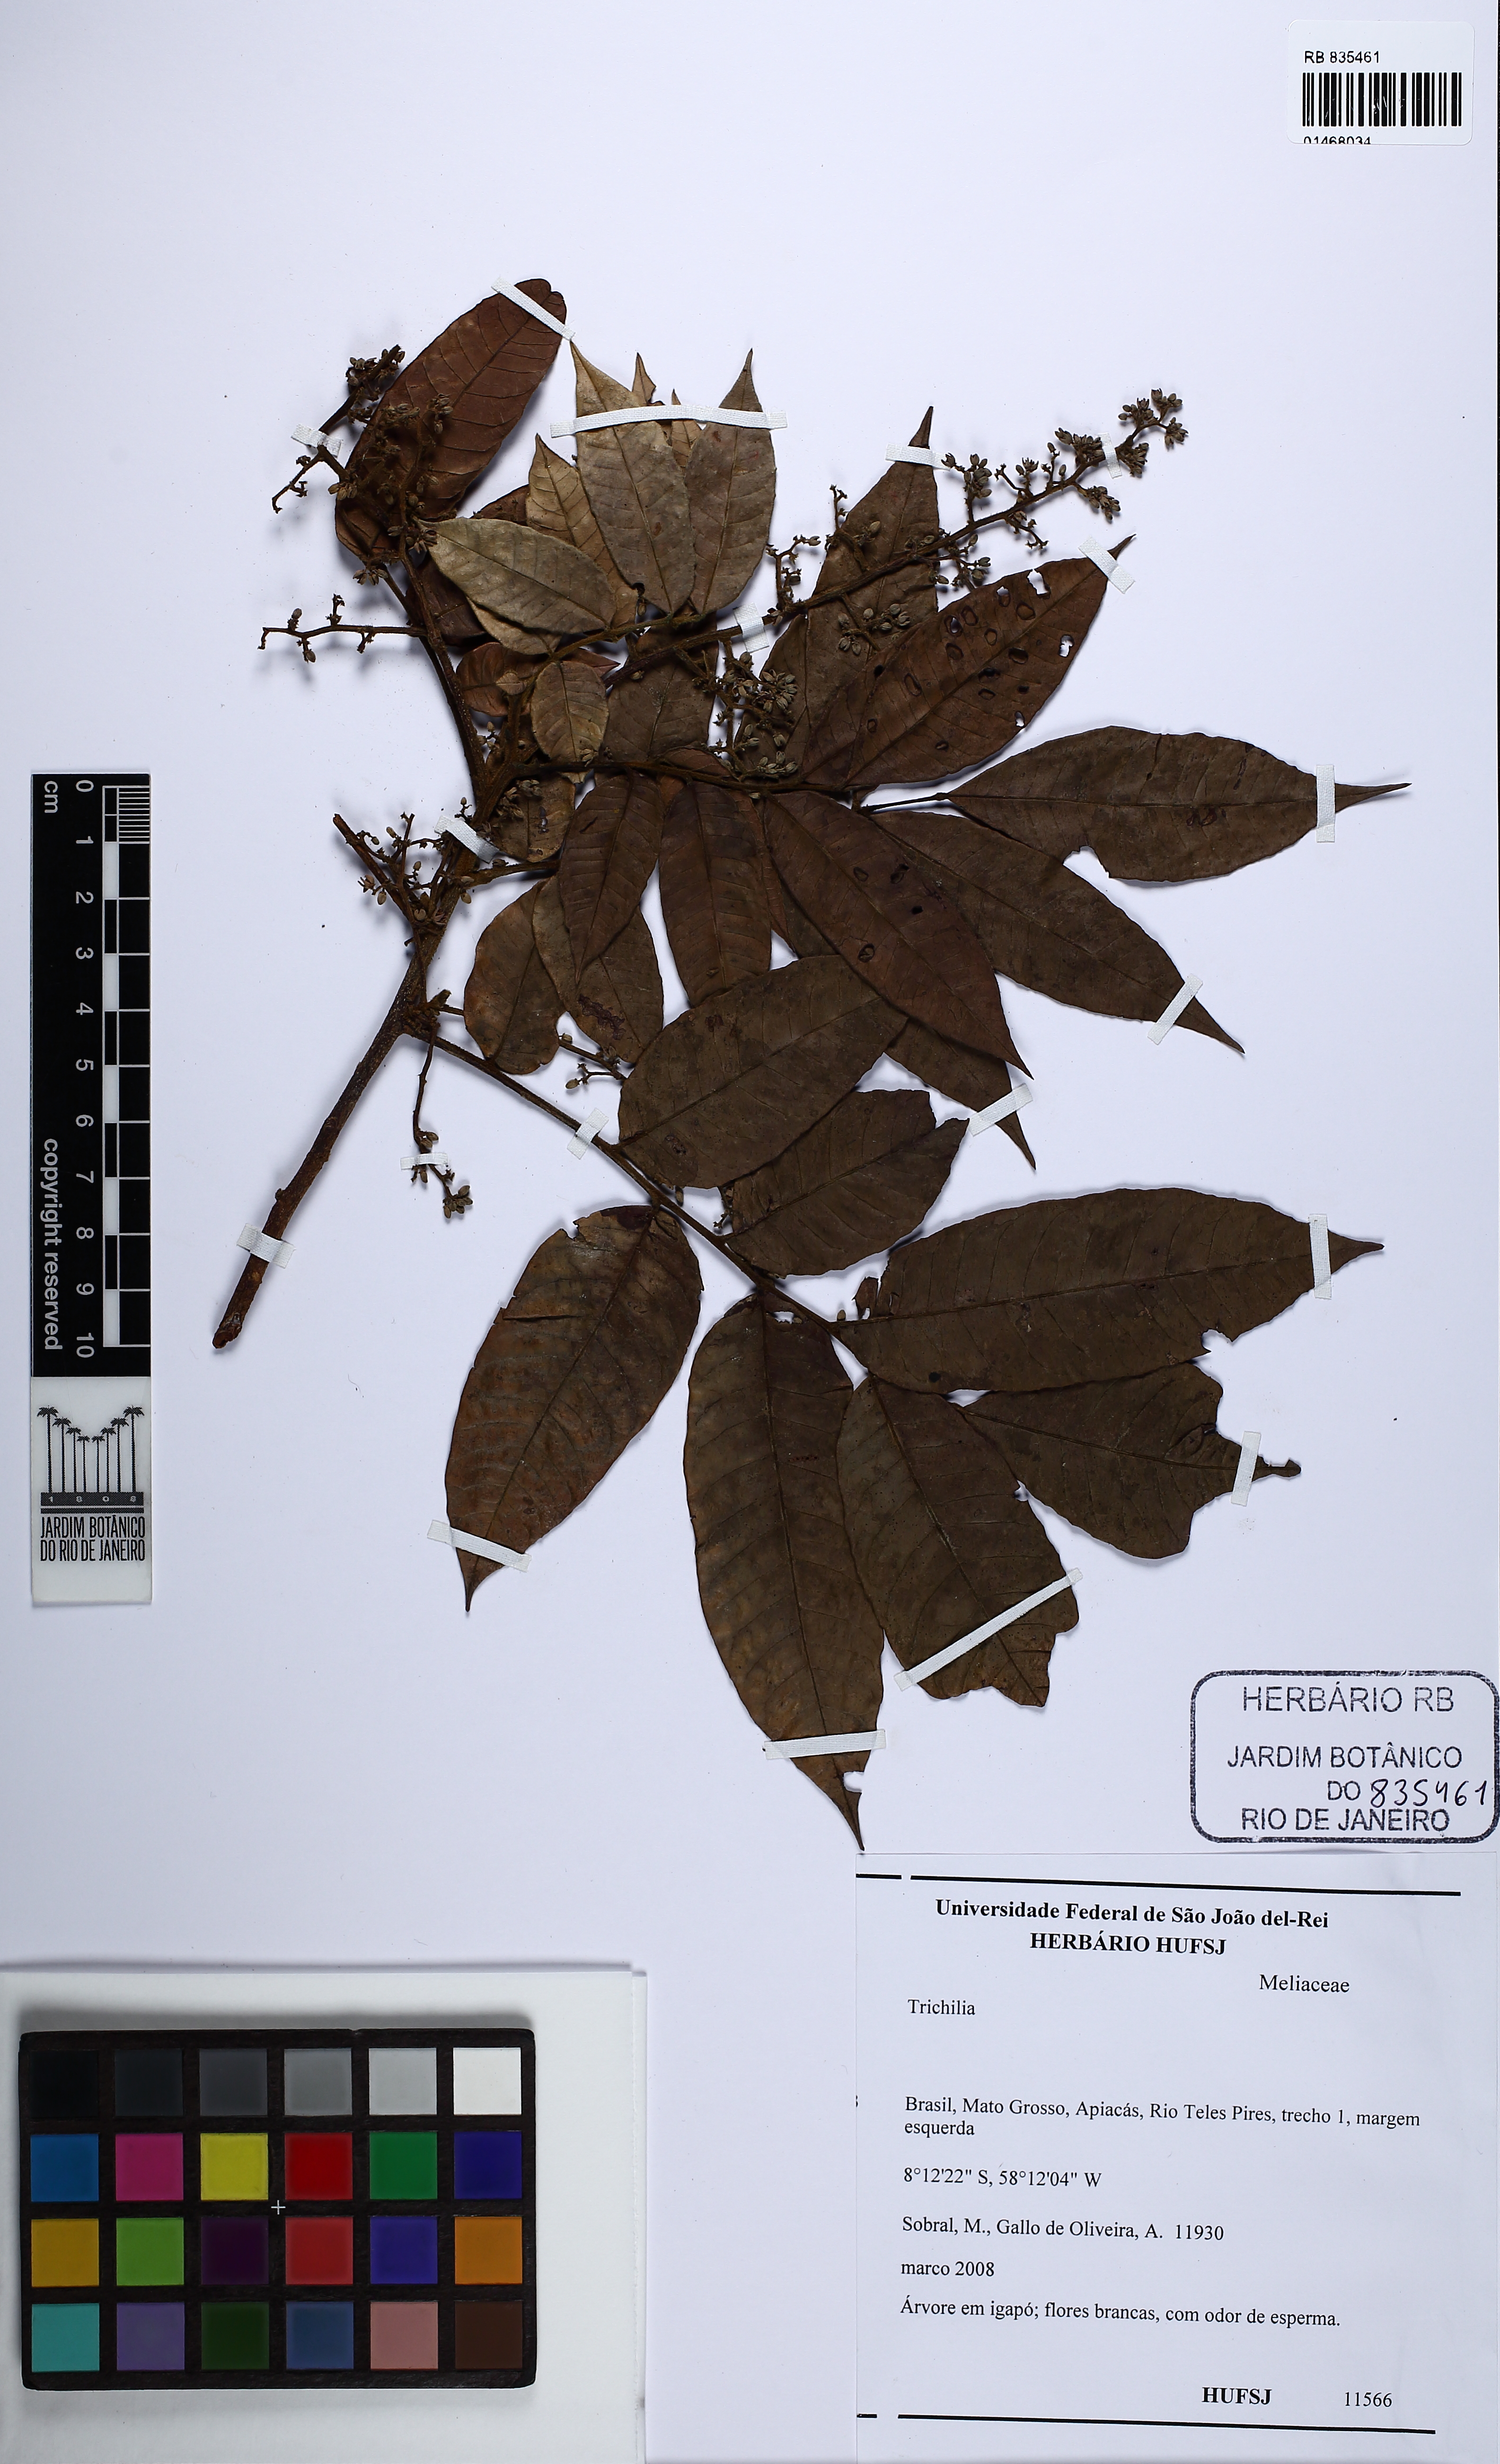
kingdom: Plantae
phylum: Tracheophyta
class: Magnoliopsida
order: Sapindales
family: Meliaceae
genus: Trichilia
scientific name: Trichilia
